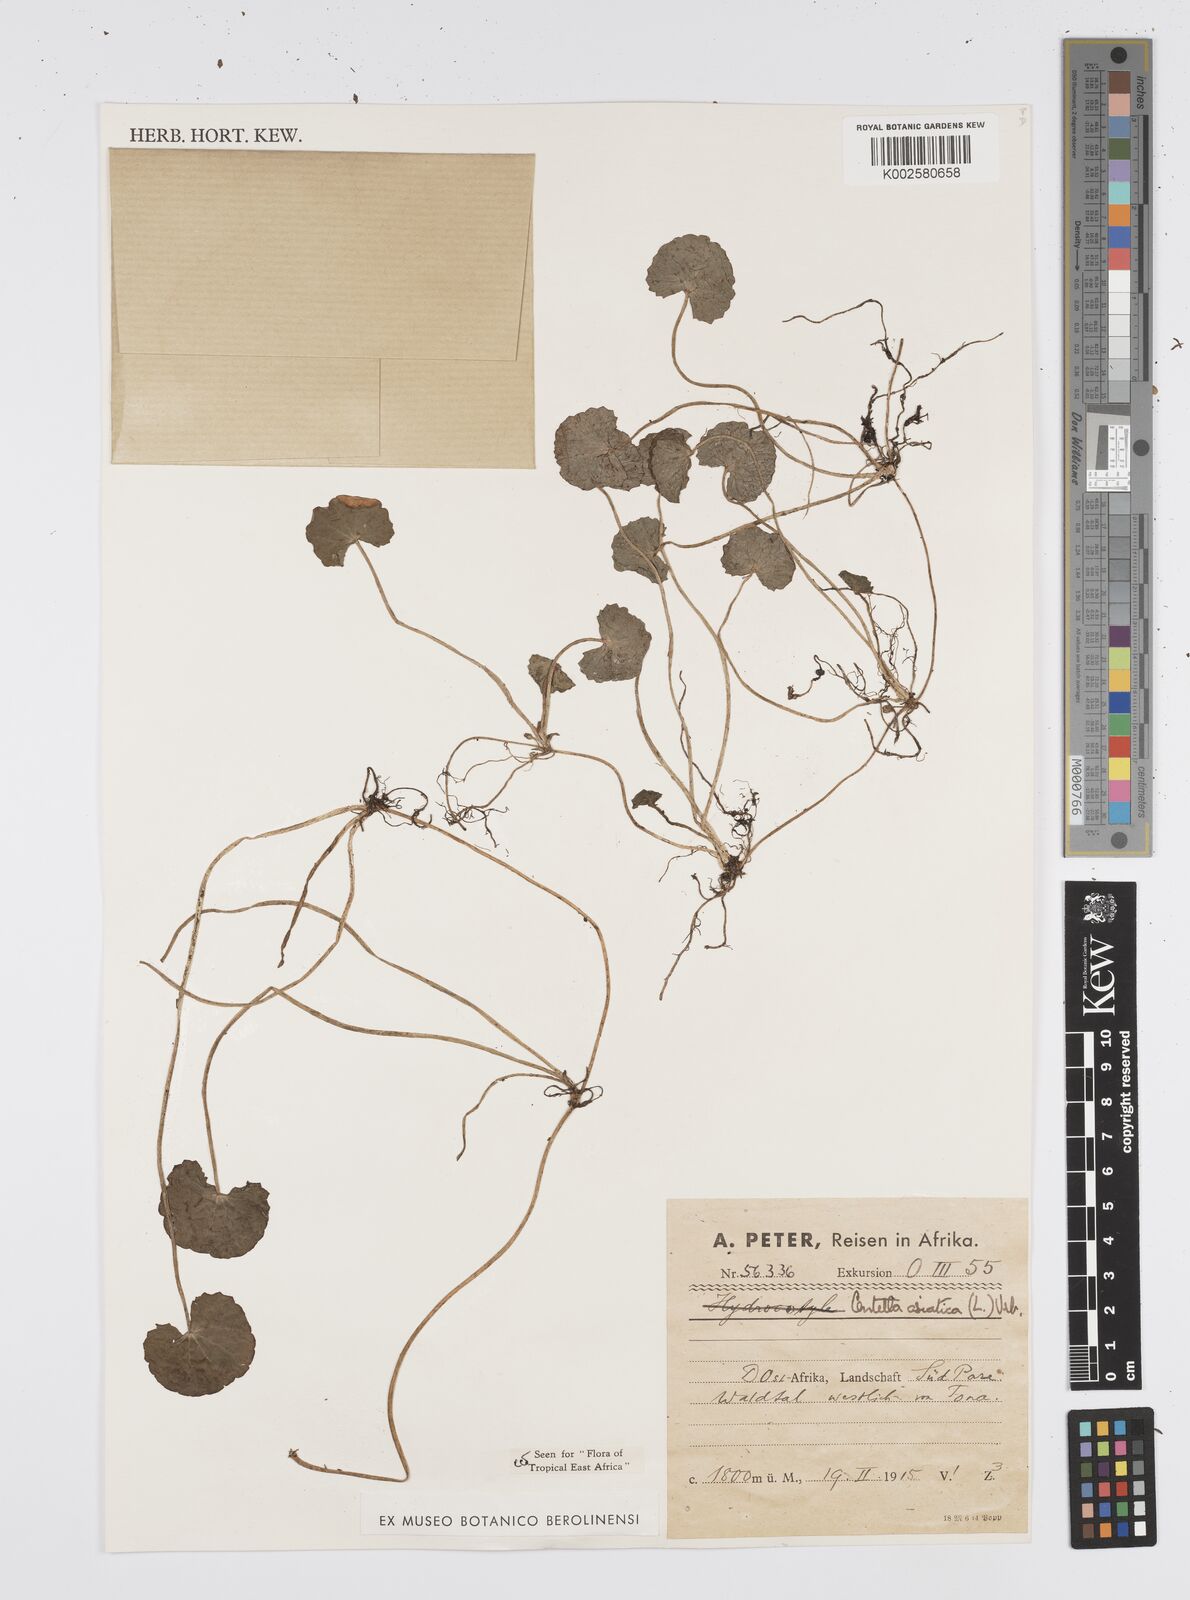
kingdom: Plantae
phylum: Tracheophyta
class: Magnoliopsida
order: Apiales
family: Apiaceae
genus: Centella
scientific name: Centella asiatica
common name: Spadeleaf
